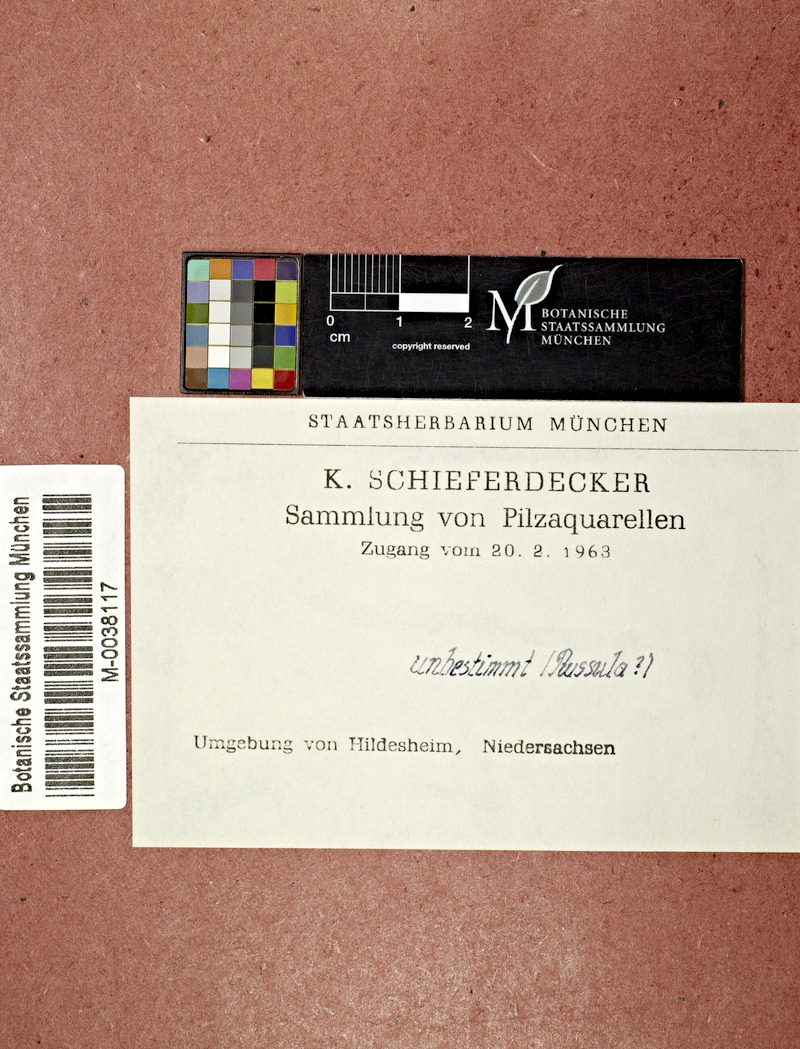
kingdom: Plantae
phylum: Tracheophyta
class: Magnoliopsida
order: Fagales
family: Fagaceae
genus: Quercus
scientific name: Quercus
